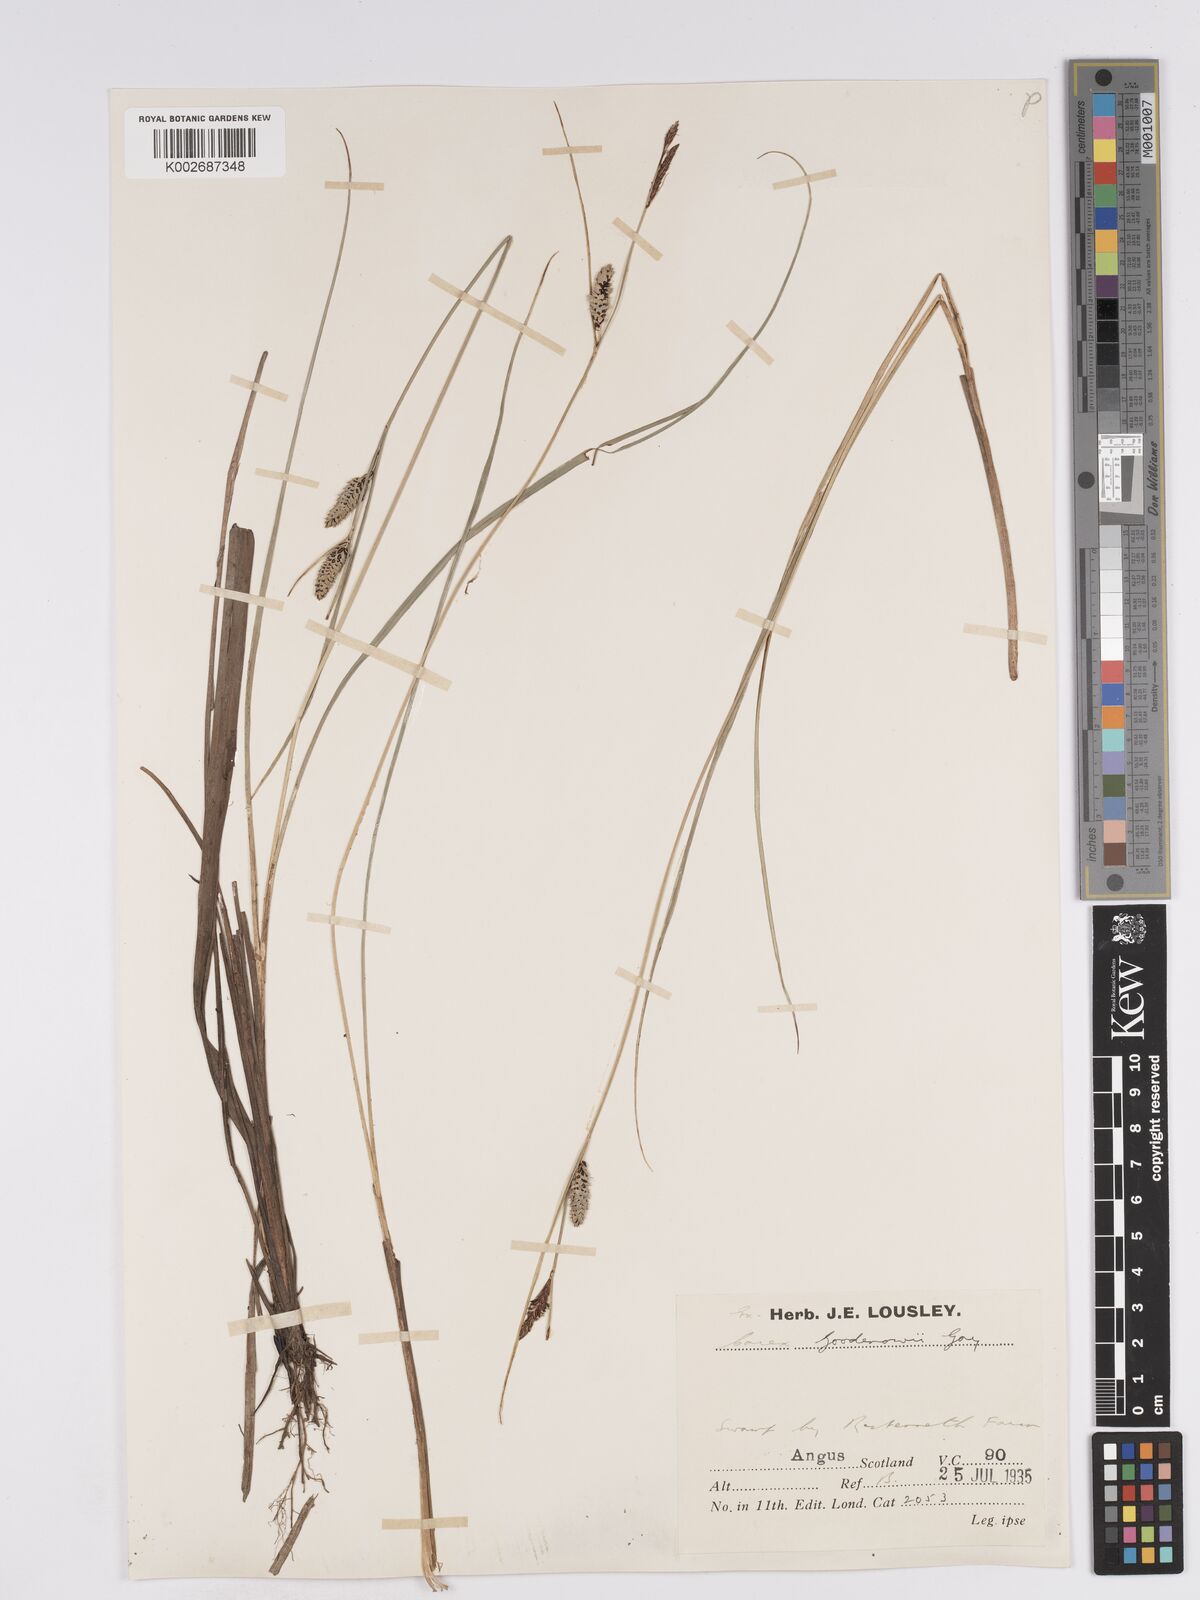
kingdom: Plantae
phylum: Tracheophyta
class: Liliopsida
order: Poales
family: Cyperaceae
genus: Carex
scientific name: Carex nigra
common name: Common sedge
